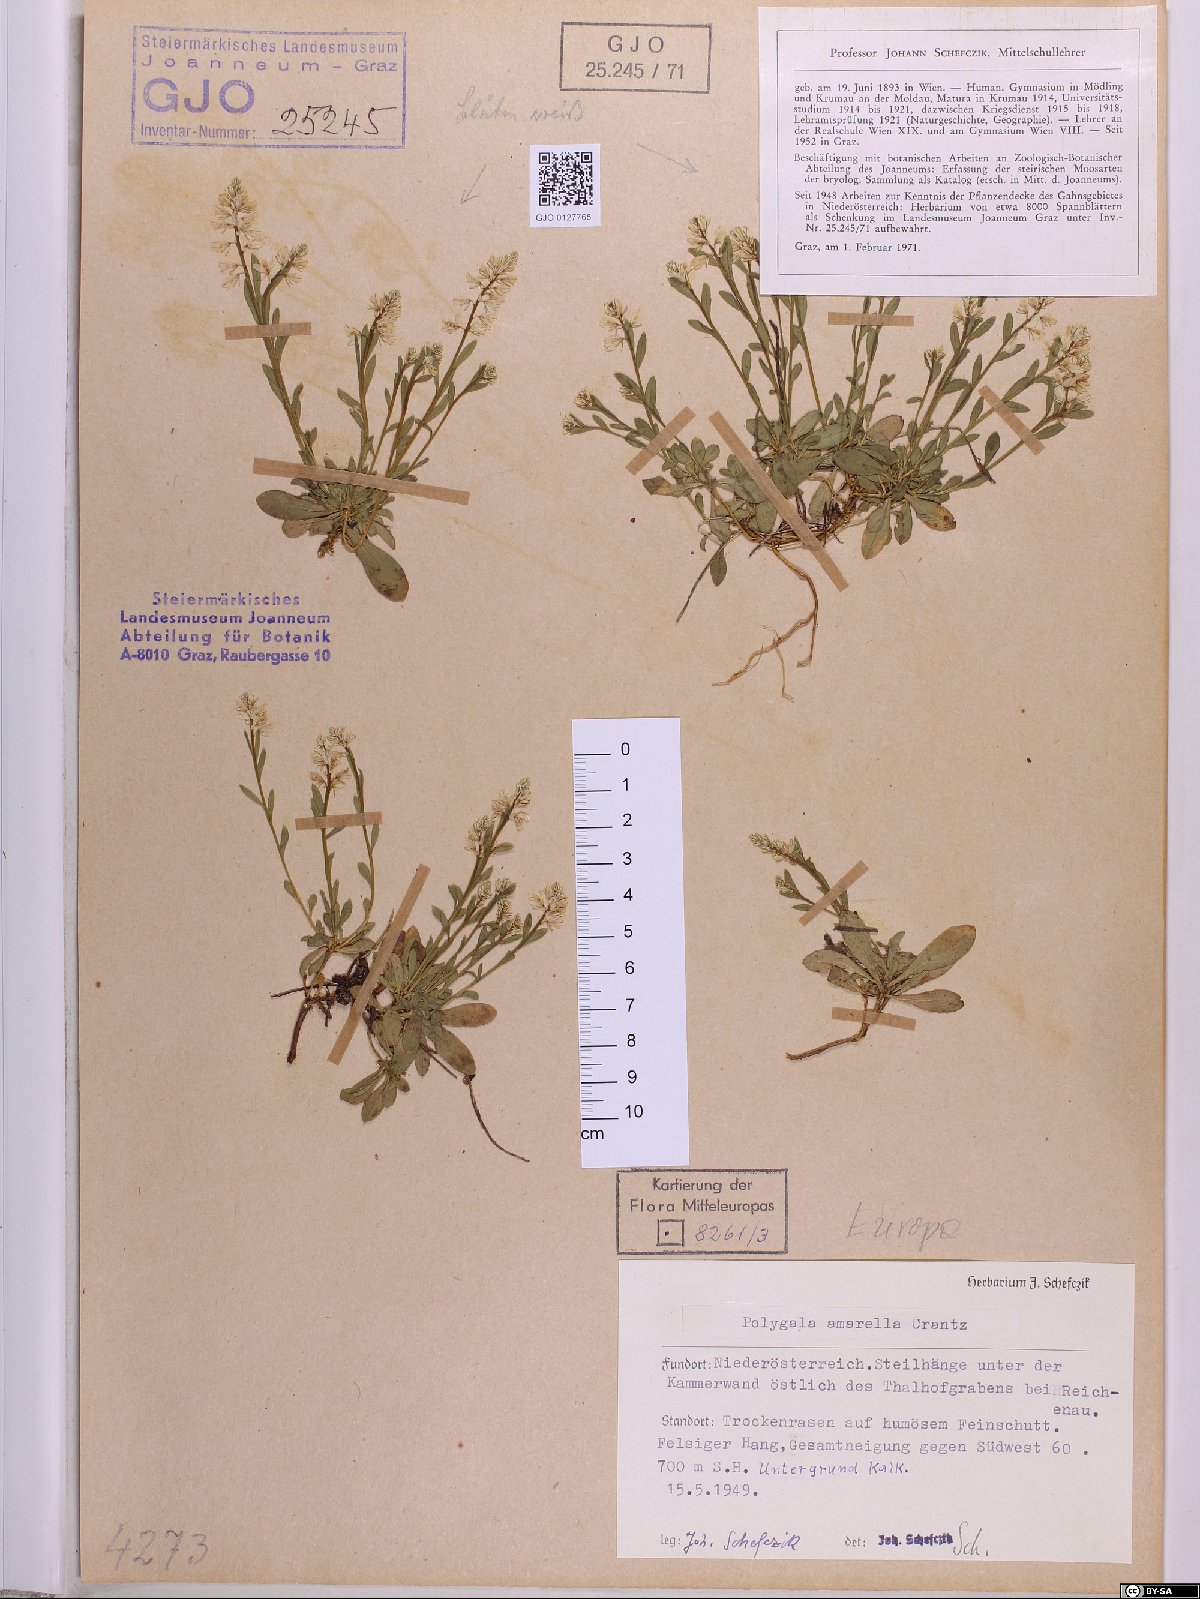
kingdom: Plantae
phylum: Tracheophyta
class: Magnoliopsida
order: Fabales
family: Polygalaceae
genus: Polygala
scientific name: Polygala amarella
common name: Dwarf milkwort
